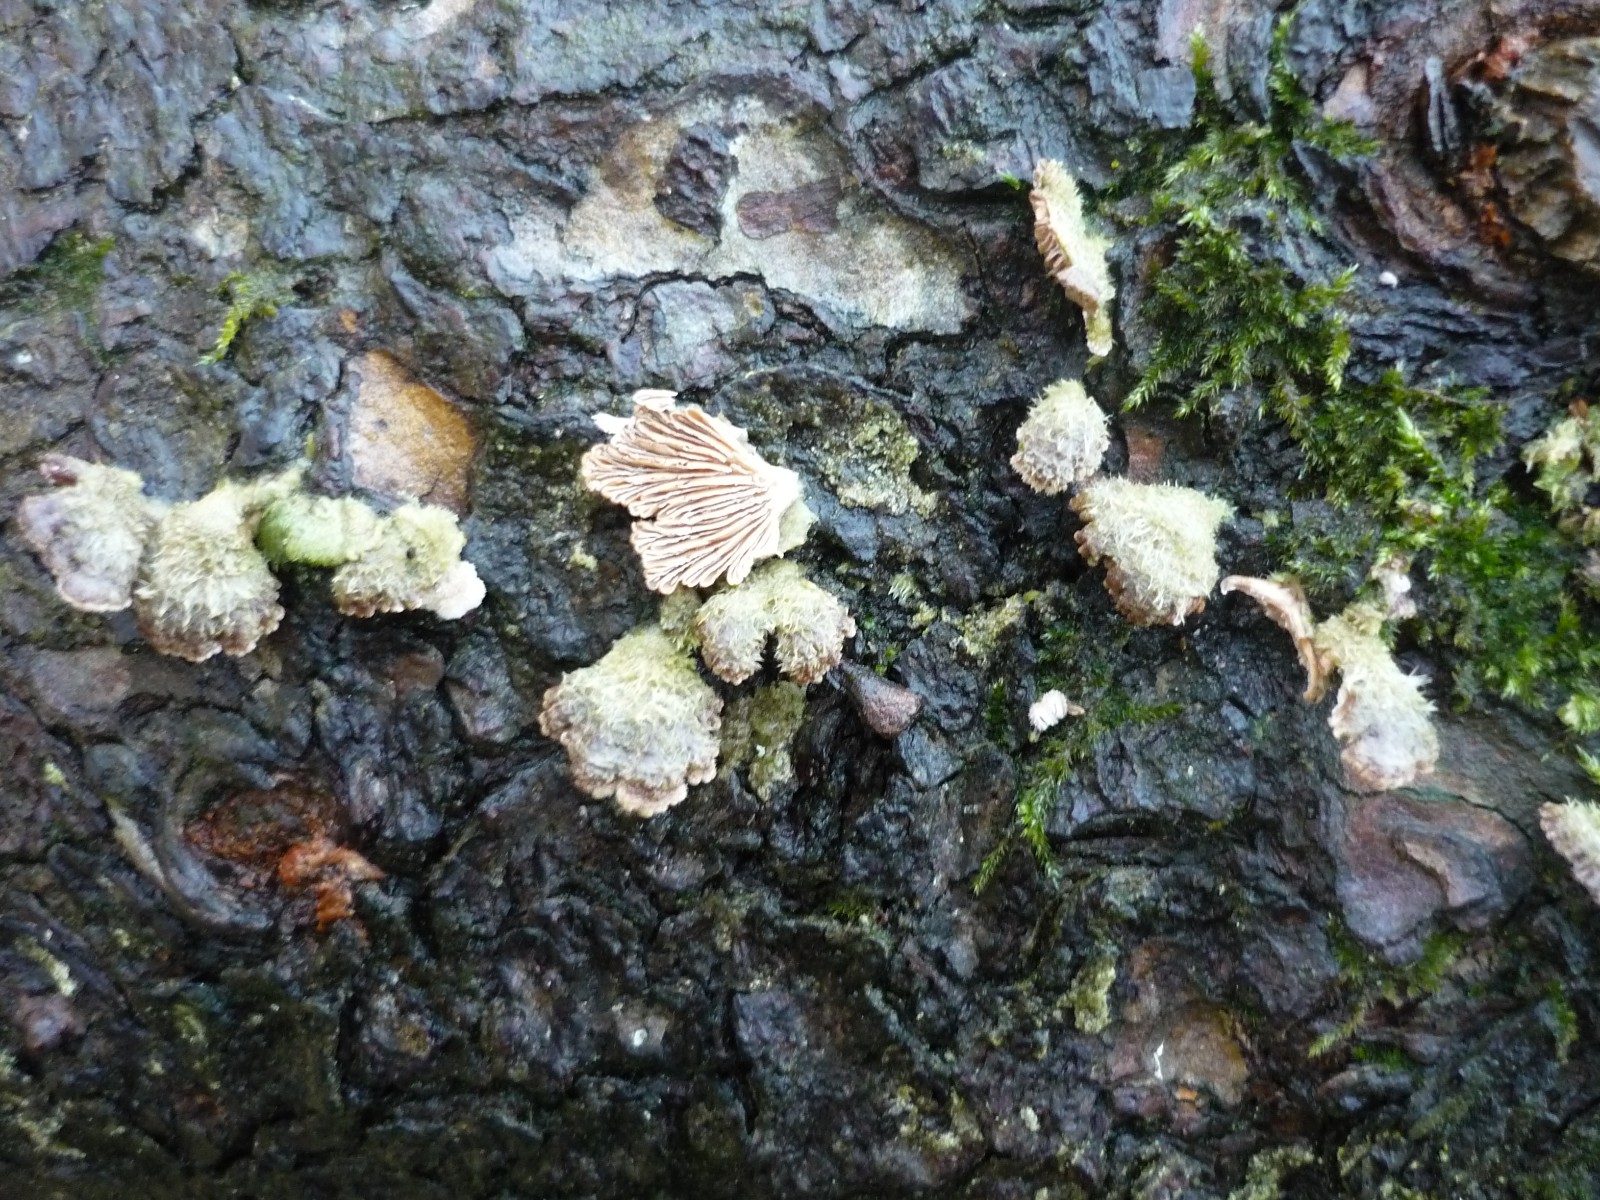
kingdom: Fungi
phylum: Basidiomycota
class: Agaricomycetes
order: Agaricales
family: Schizophyllaceae
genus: Schizophyllum
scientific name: Schizophyllum commune
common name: kløvblad
